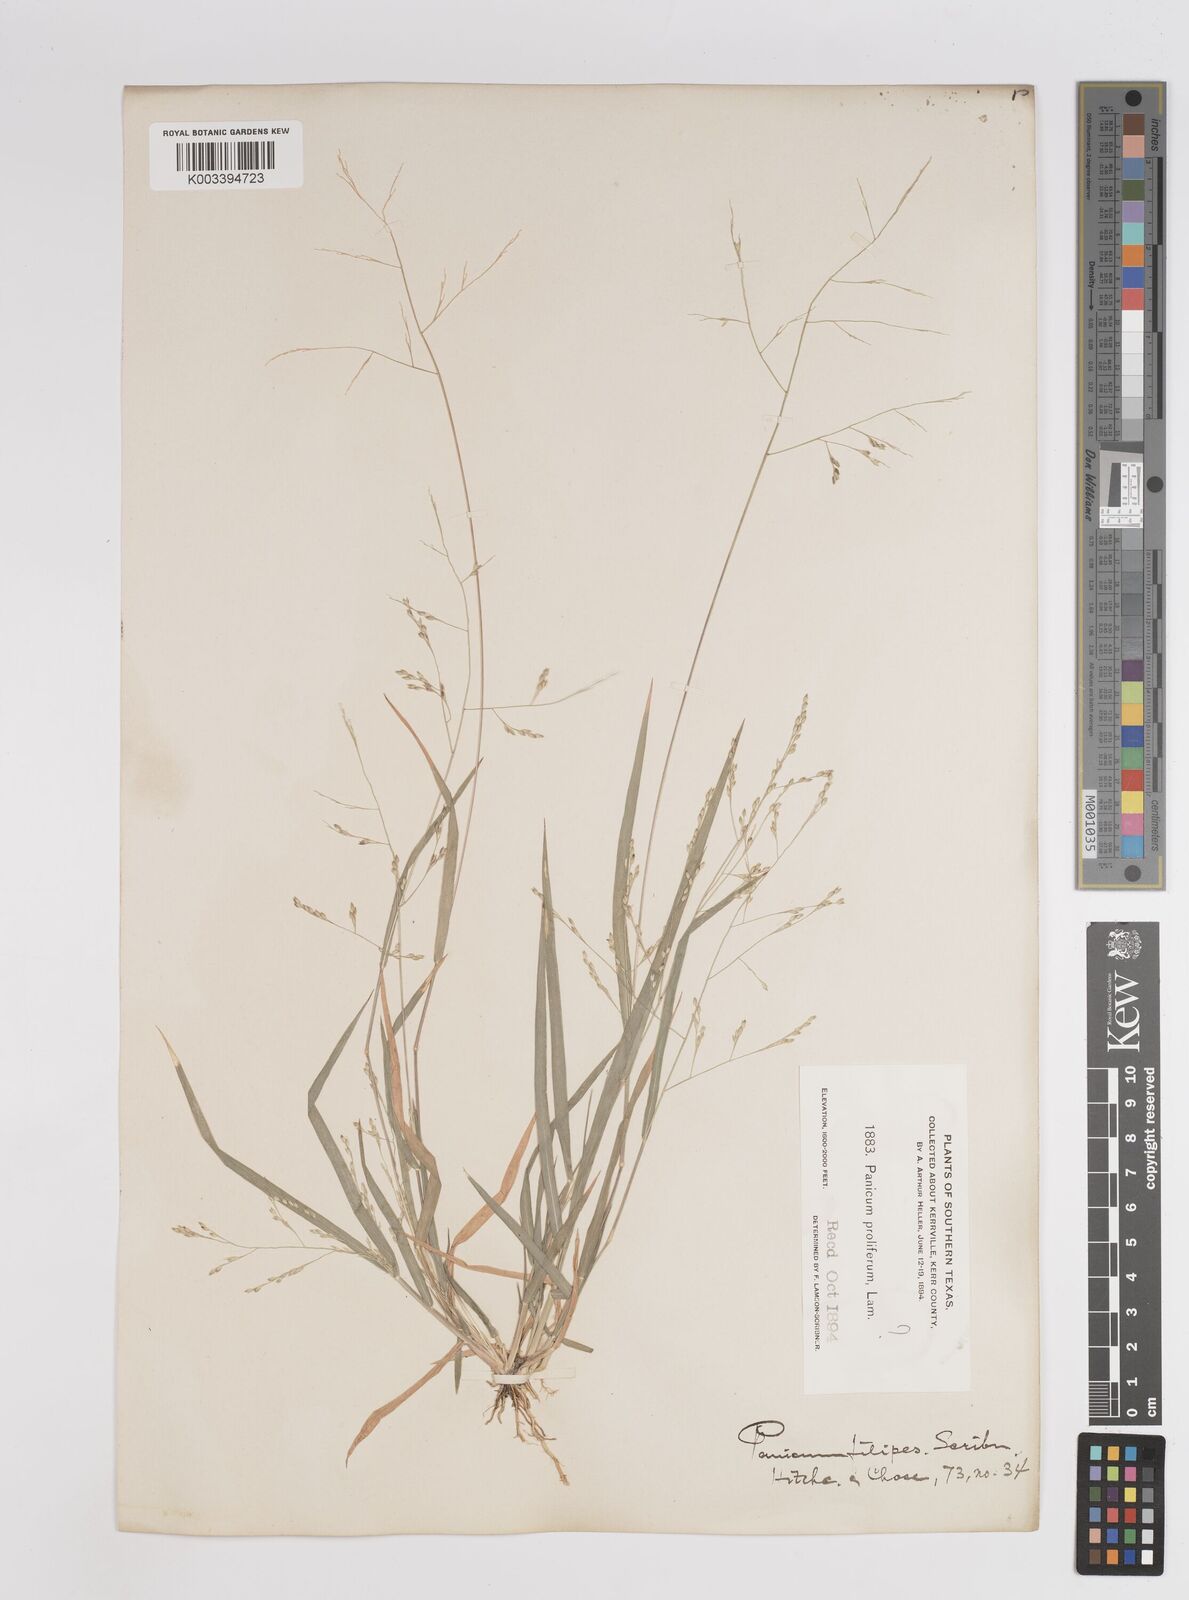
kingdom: Plantae
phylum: Tracheophyta
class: Liliopsida
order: Poales
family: Poaceae
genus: Panicum
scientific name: Panicum hallii
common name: Hall's witchgrass
